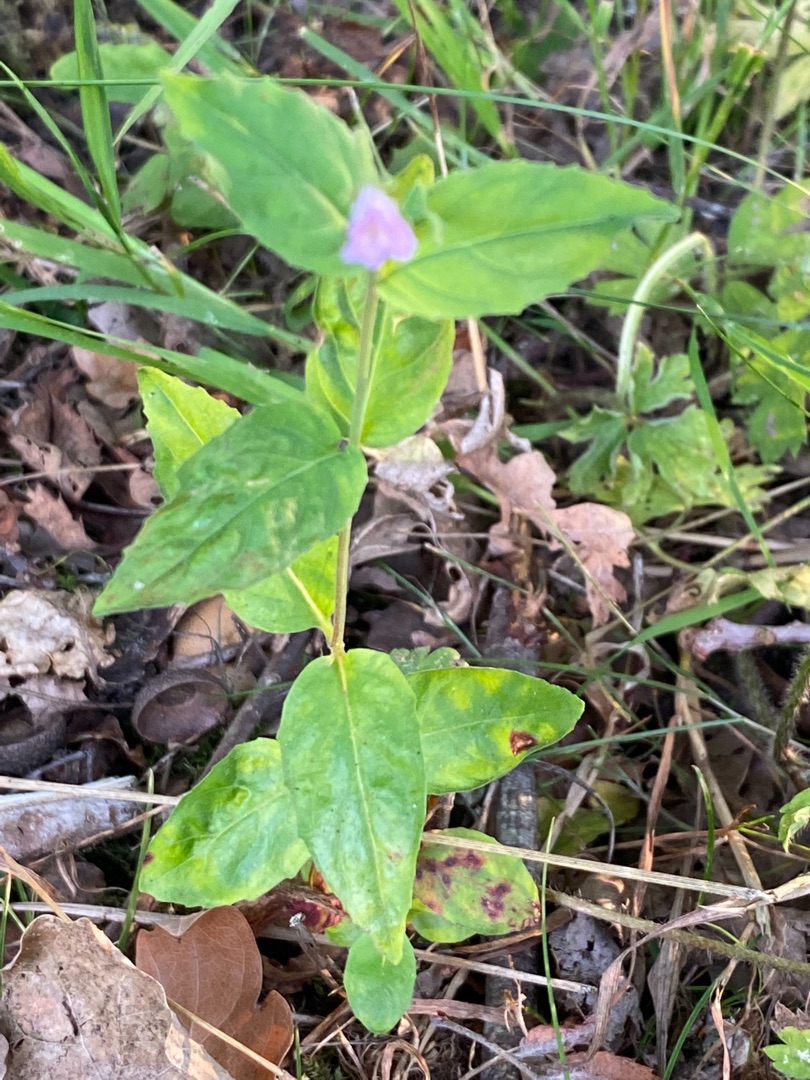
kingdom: Plantae
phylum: Tracheophyta
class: Magnoliopsida
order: Myrtales
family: Onagraceae
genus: Epilobium
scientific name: Epilobium montanum
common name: Glat dueurt
